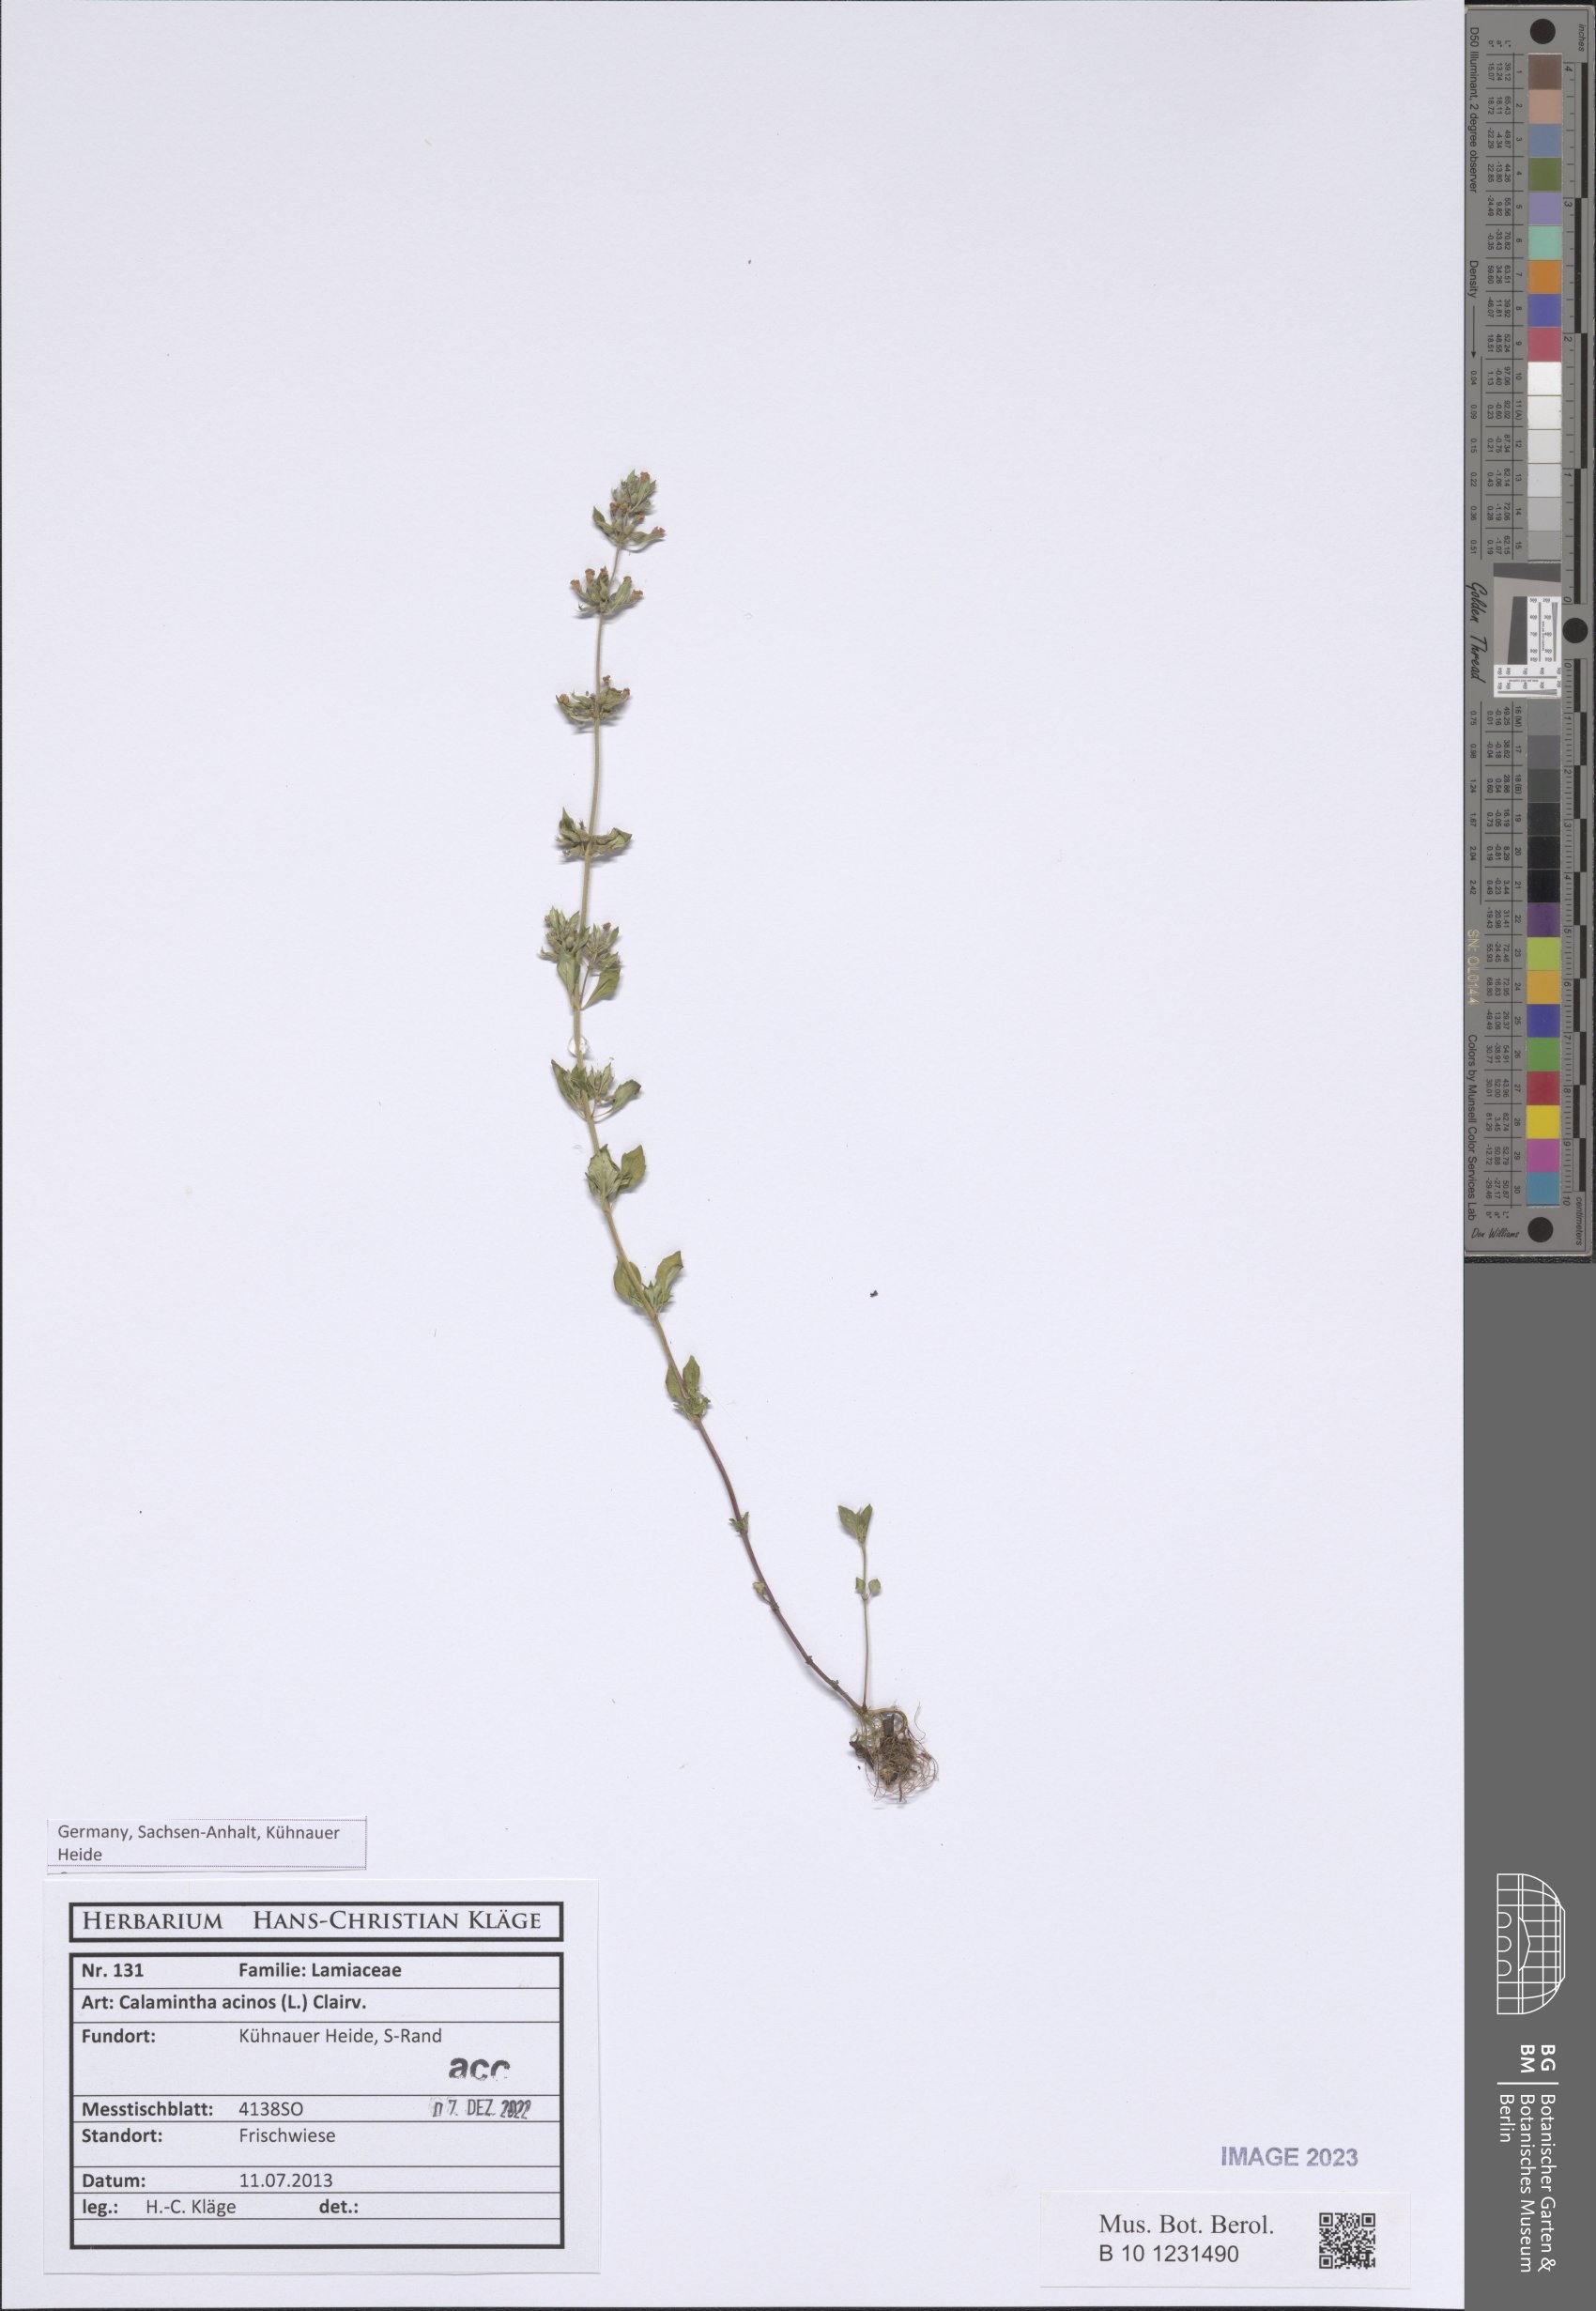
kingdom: Plantae
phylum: Tracheophyta
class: Magnoliopsida
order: Lamiales
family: Lamiaceae
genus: Clinopodium
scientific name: Clinopodium acinos
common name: Basil thyme
